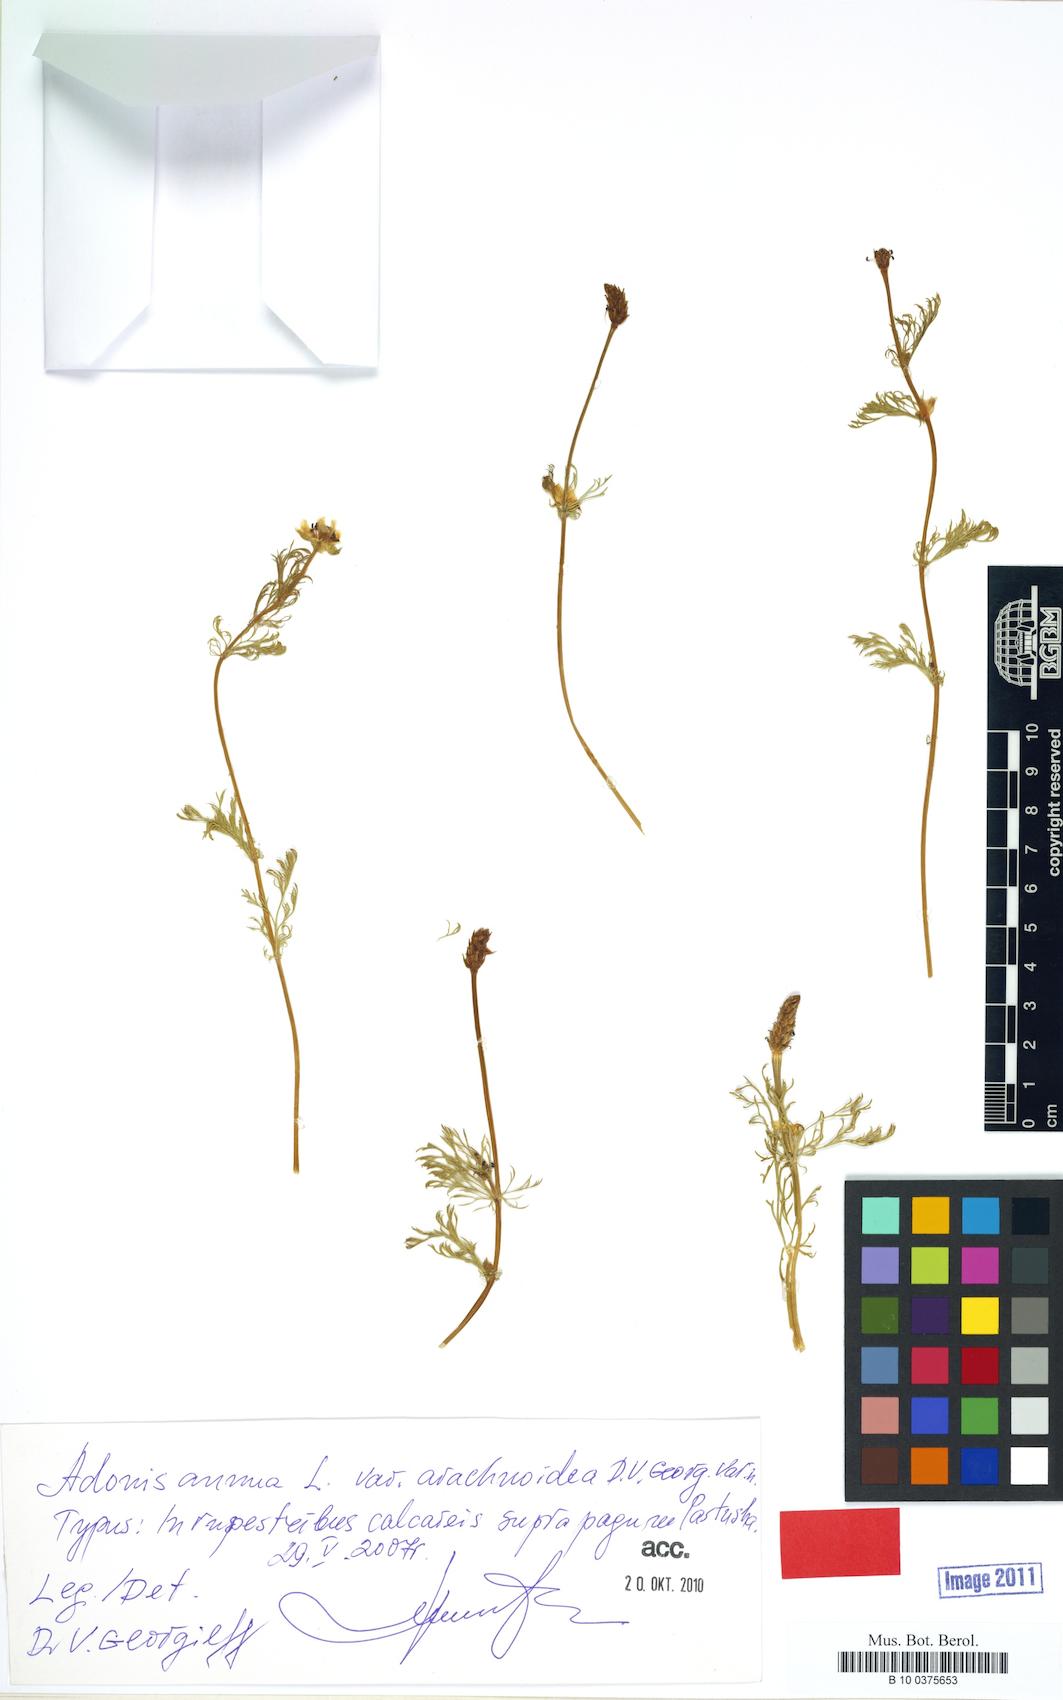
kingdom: Plantae
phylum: Tracheophyta
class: Magnoliopsida
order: Ranunculales
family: Ranunculaceae
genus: Adonis
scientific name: Adonis annua
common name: Pheasant's-eye
